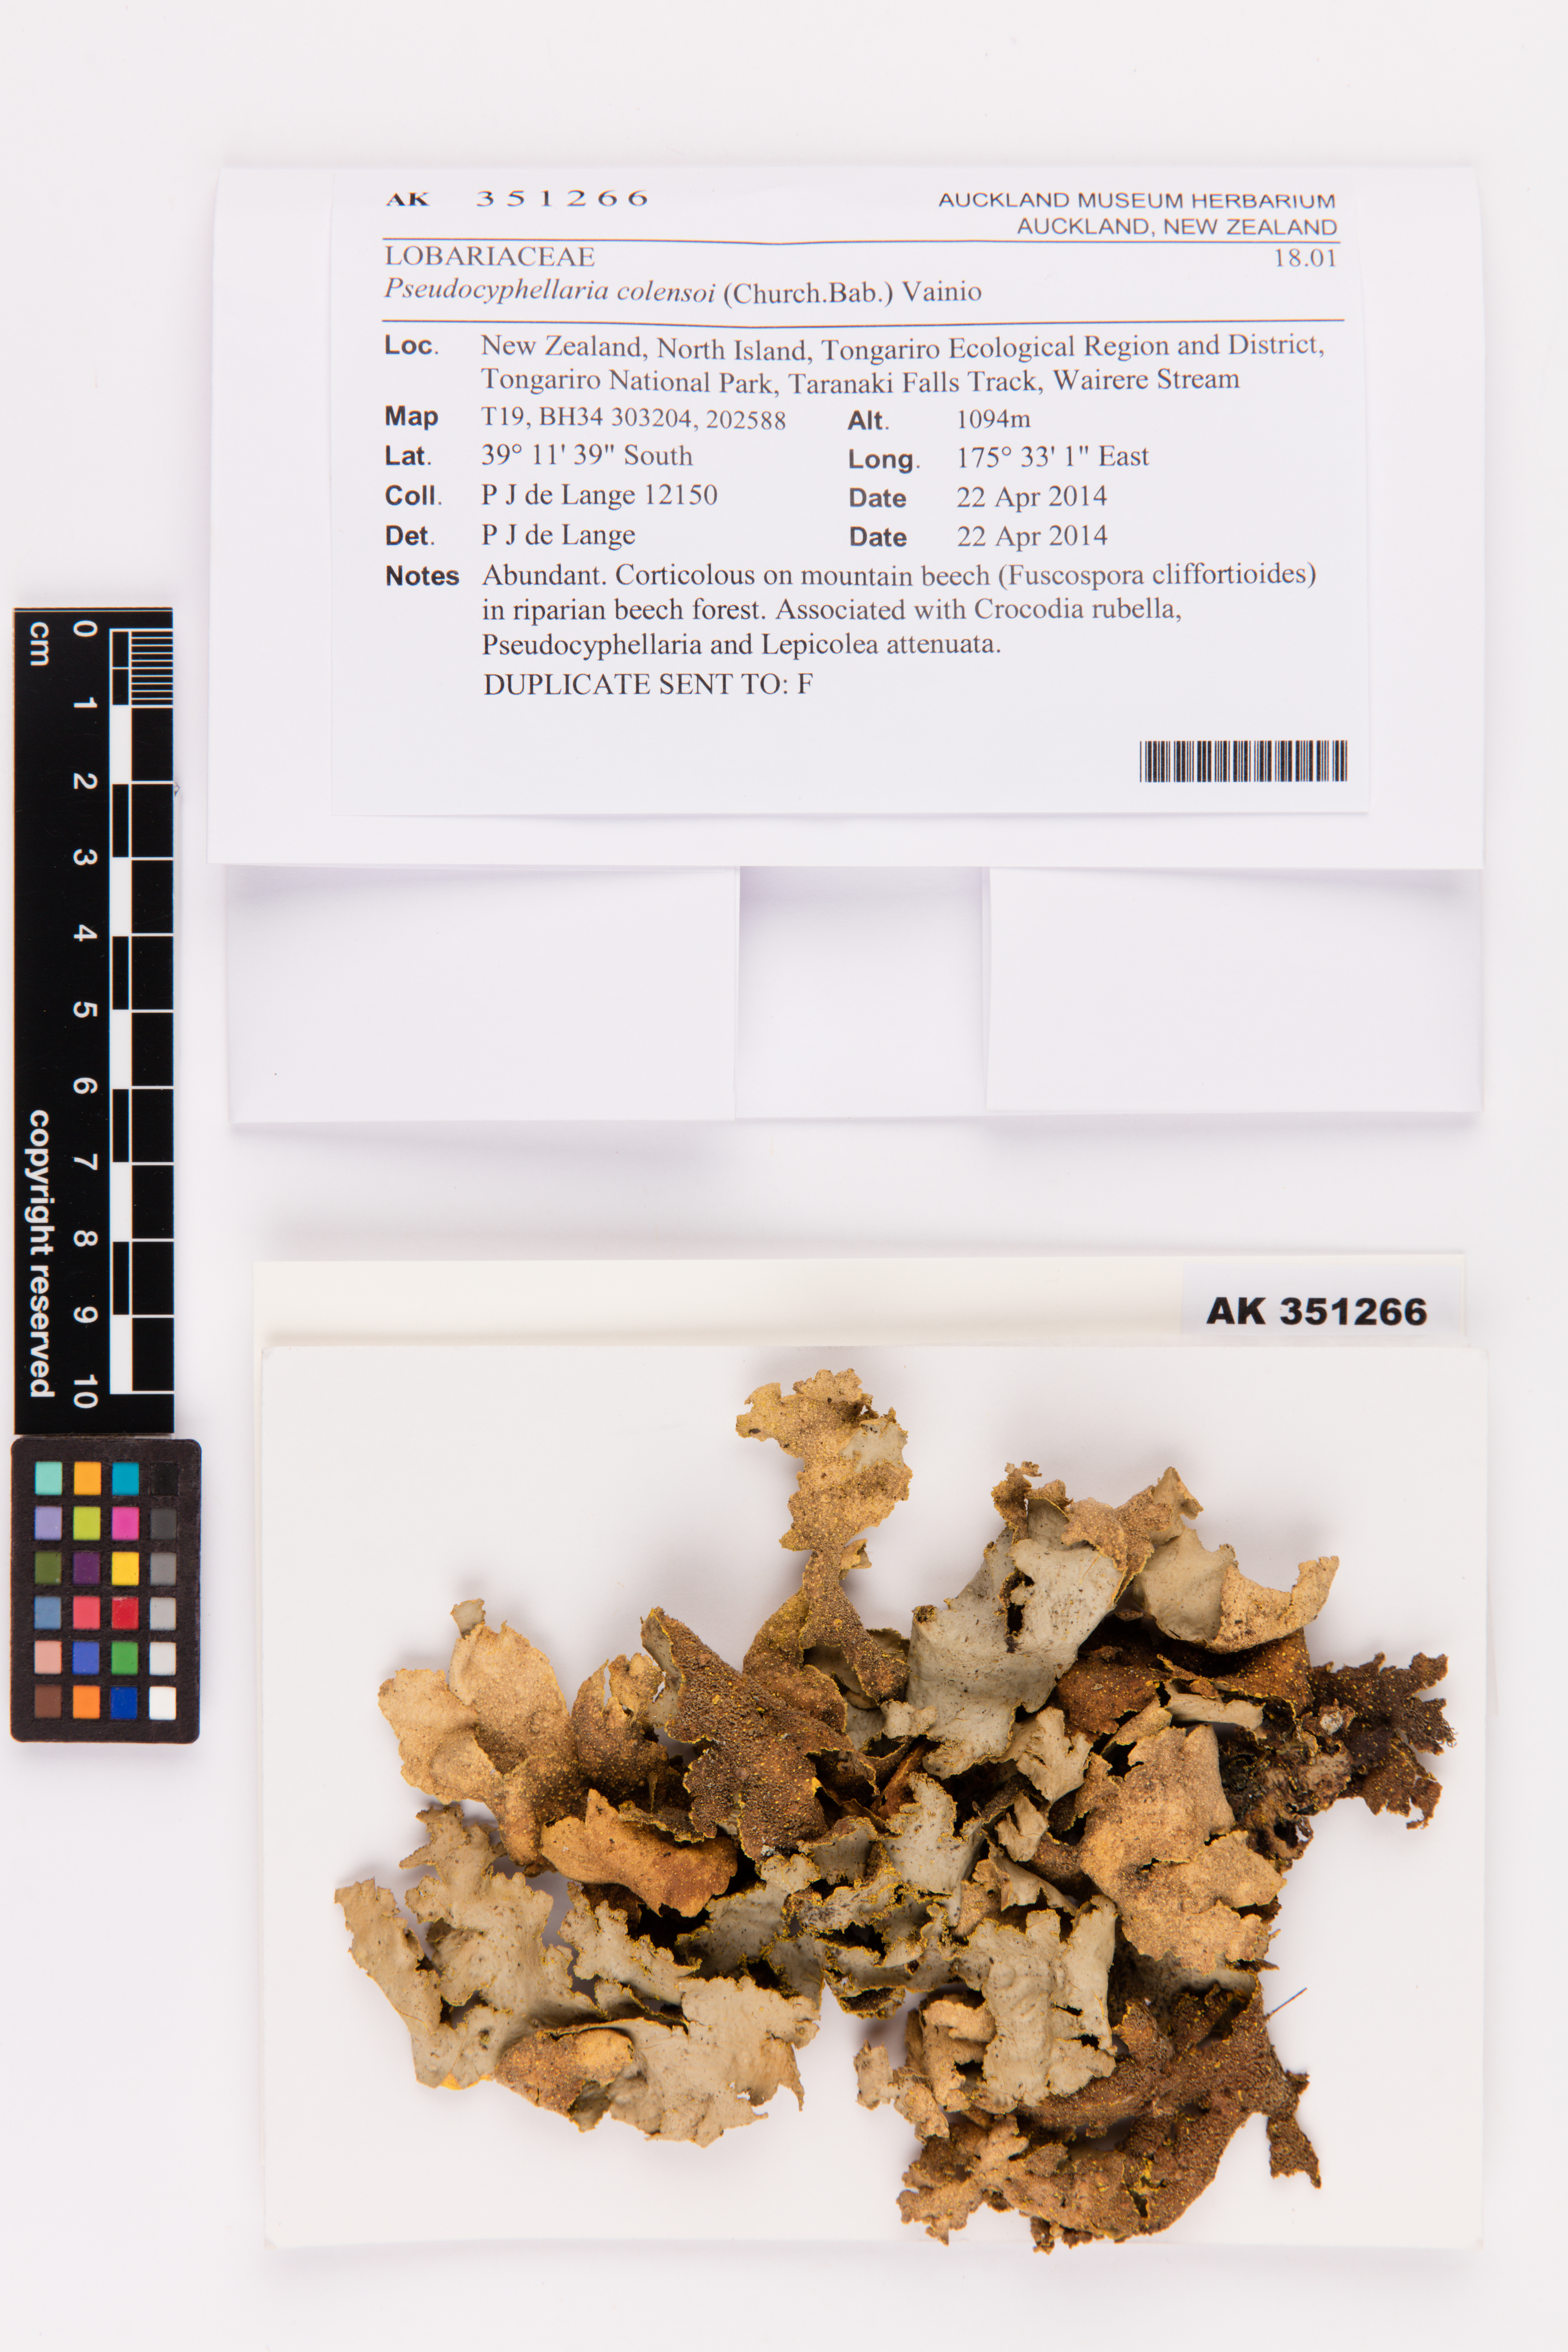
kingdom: Fungi
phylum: Ascomycota
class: Lecanoromycetes
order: Peltigerales
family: Lobariaceae
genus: Yarrumia
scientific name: Yarrumia colensoi
